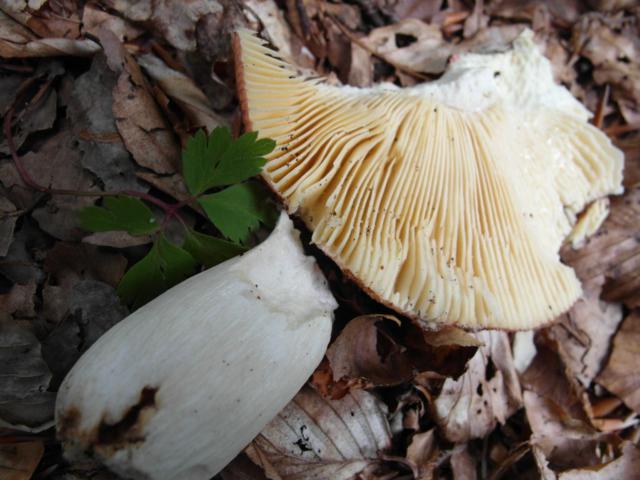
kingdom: Fungi
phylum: Basidiomycota
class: Agaricomycetes
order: Russulales
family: Russulaceae
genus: Russula
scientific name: Russula romellii
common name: romells skørhat
